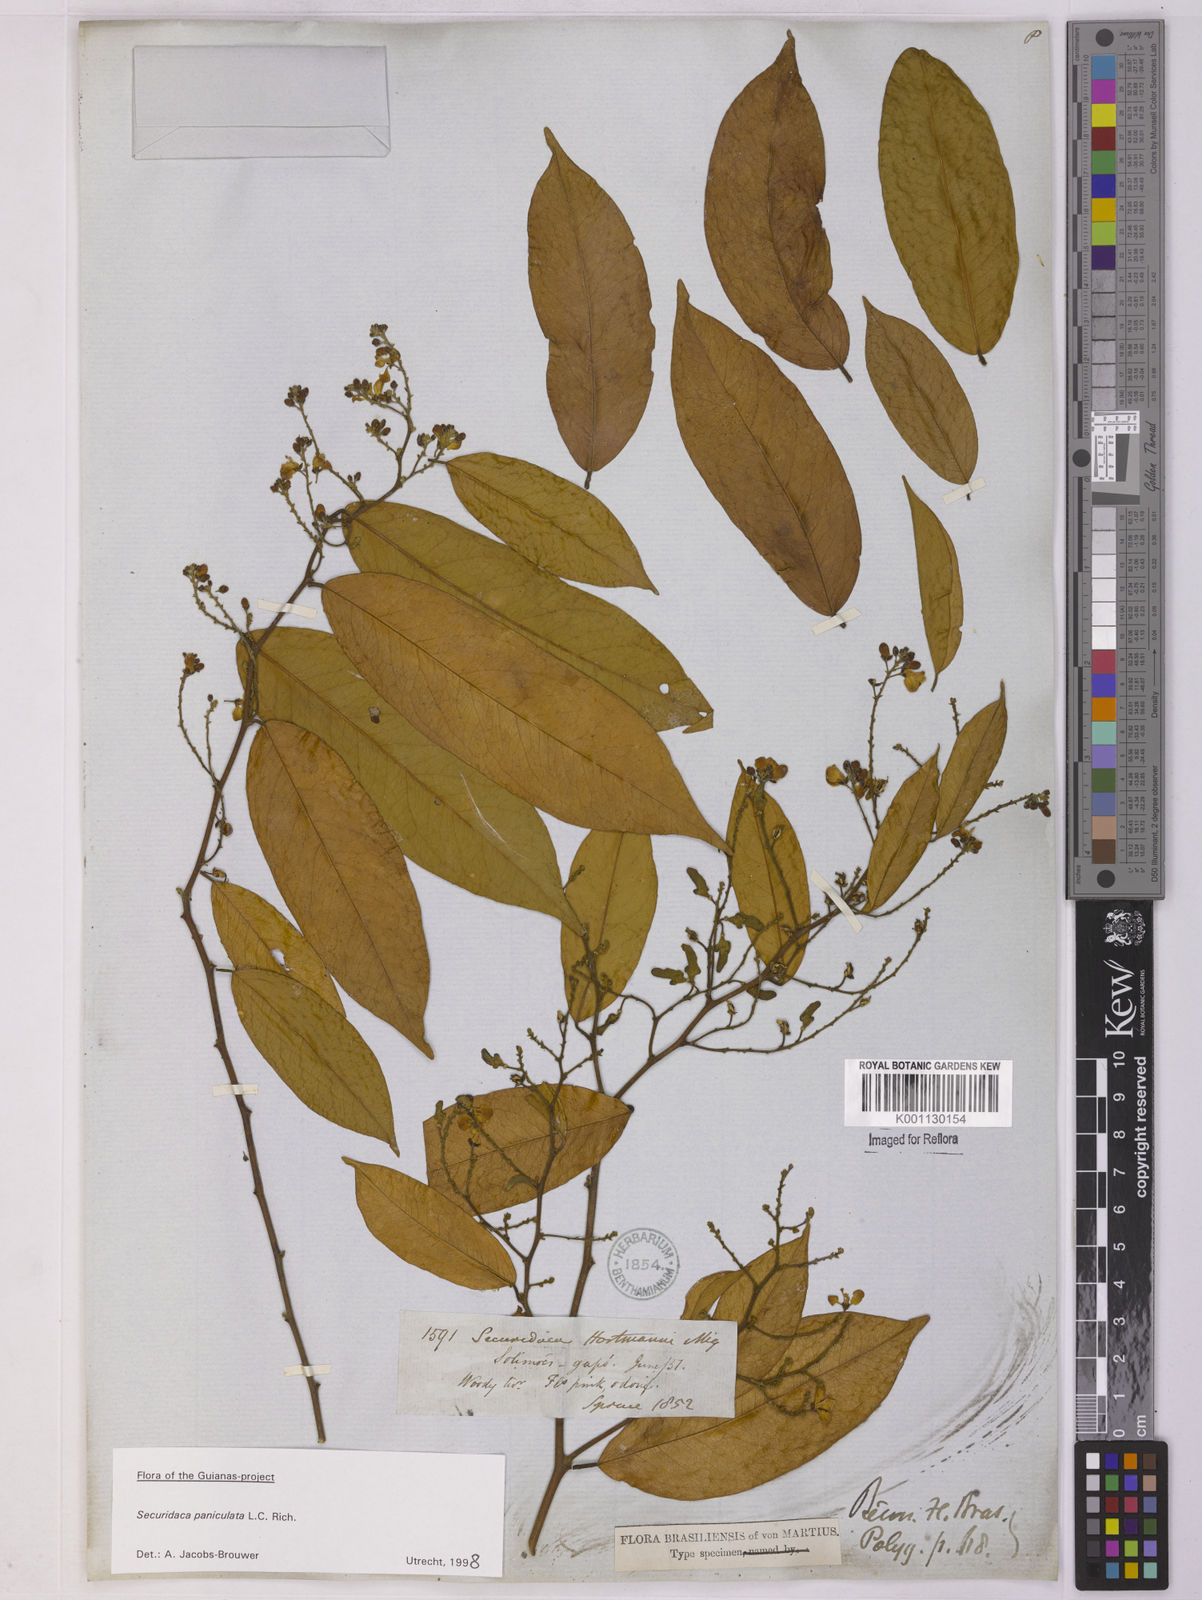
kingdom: Plantae
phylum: Tracheophyta
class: Magnoliopsida
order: Fabales
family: Polygalaceae
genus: Securidaca
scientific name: Securidaca paniculata
